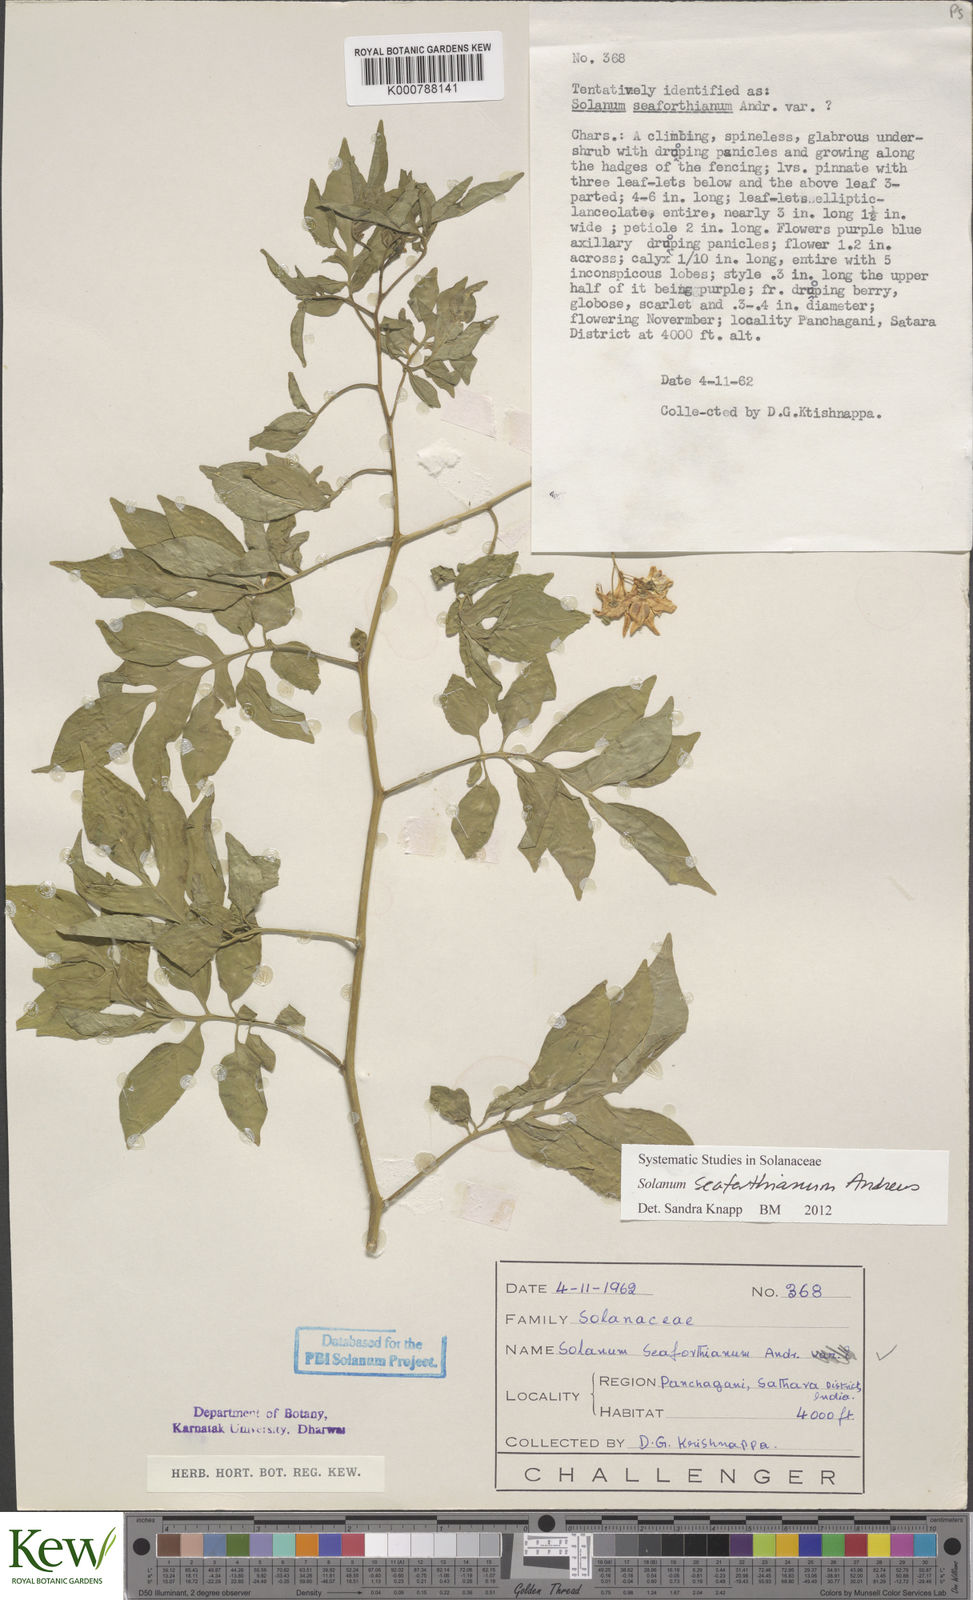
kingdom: Plantae
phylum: Tracheophyta
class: Magnoliopsida
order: Solanales
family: Solanaceae
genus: Solanum
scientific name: Solanum seaforthianum
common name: Brazilian nightshade
